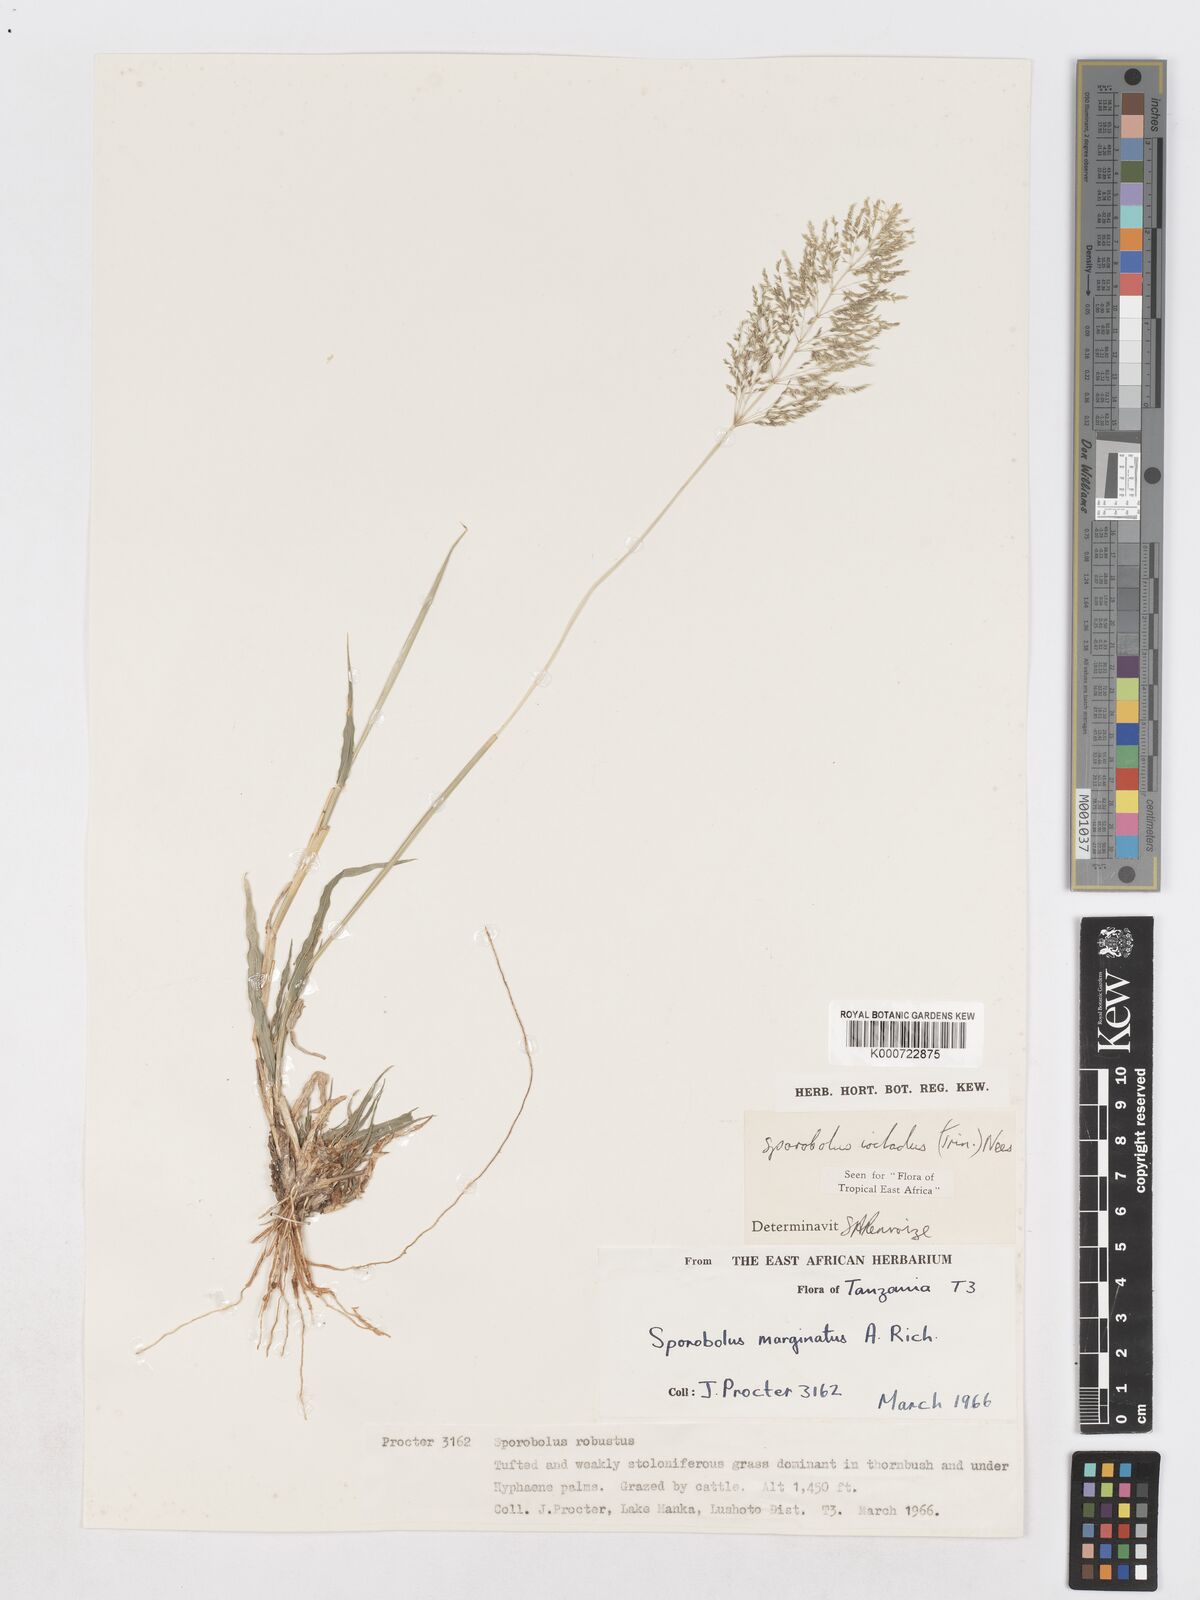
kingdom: Plantae
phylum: Tracheophyta
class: Liliopsida
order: Poales
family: Poaceae
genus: Sporobolus
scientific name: Sporobolus ioclados
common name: Pan dropseed
